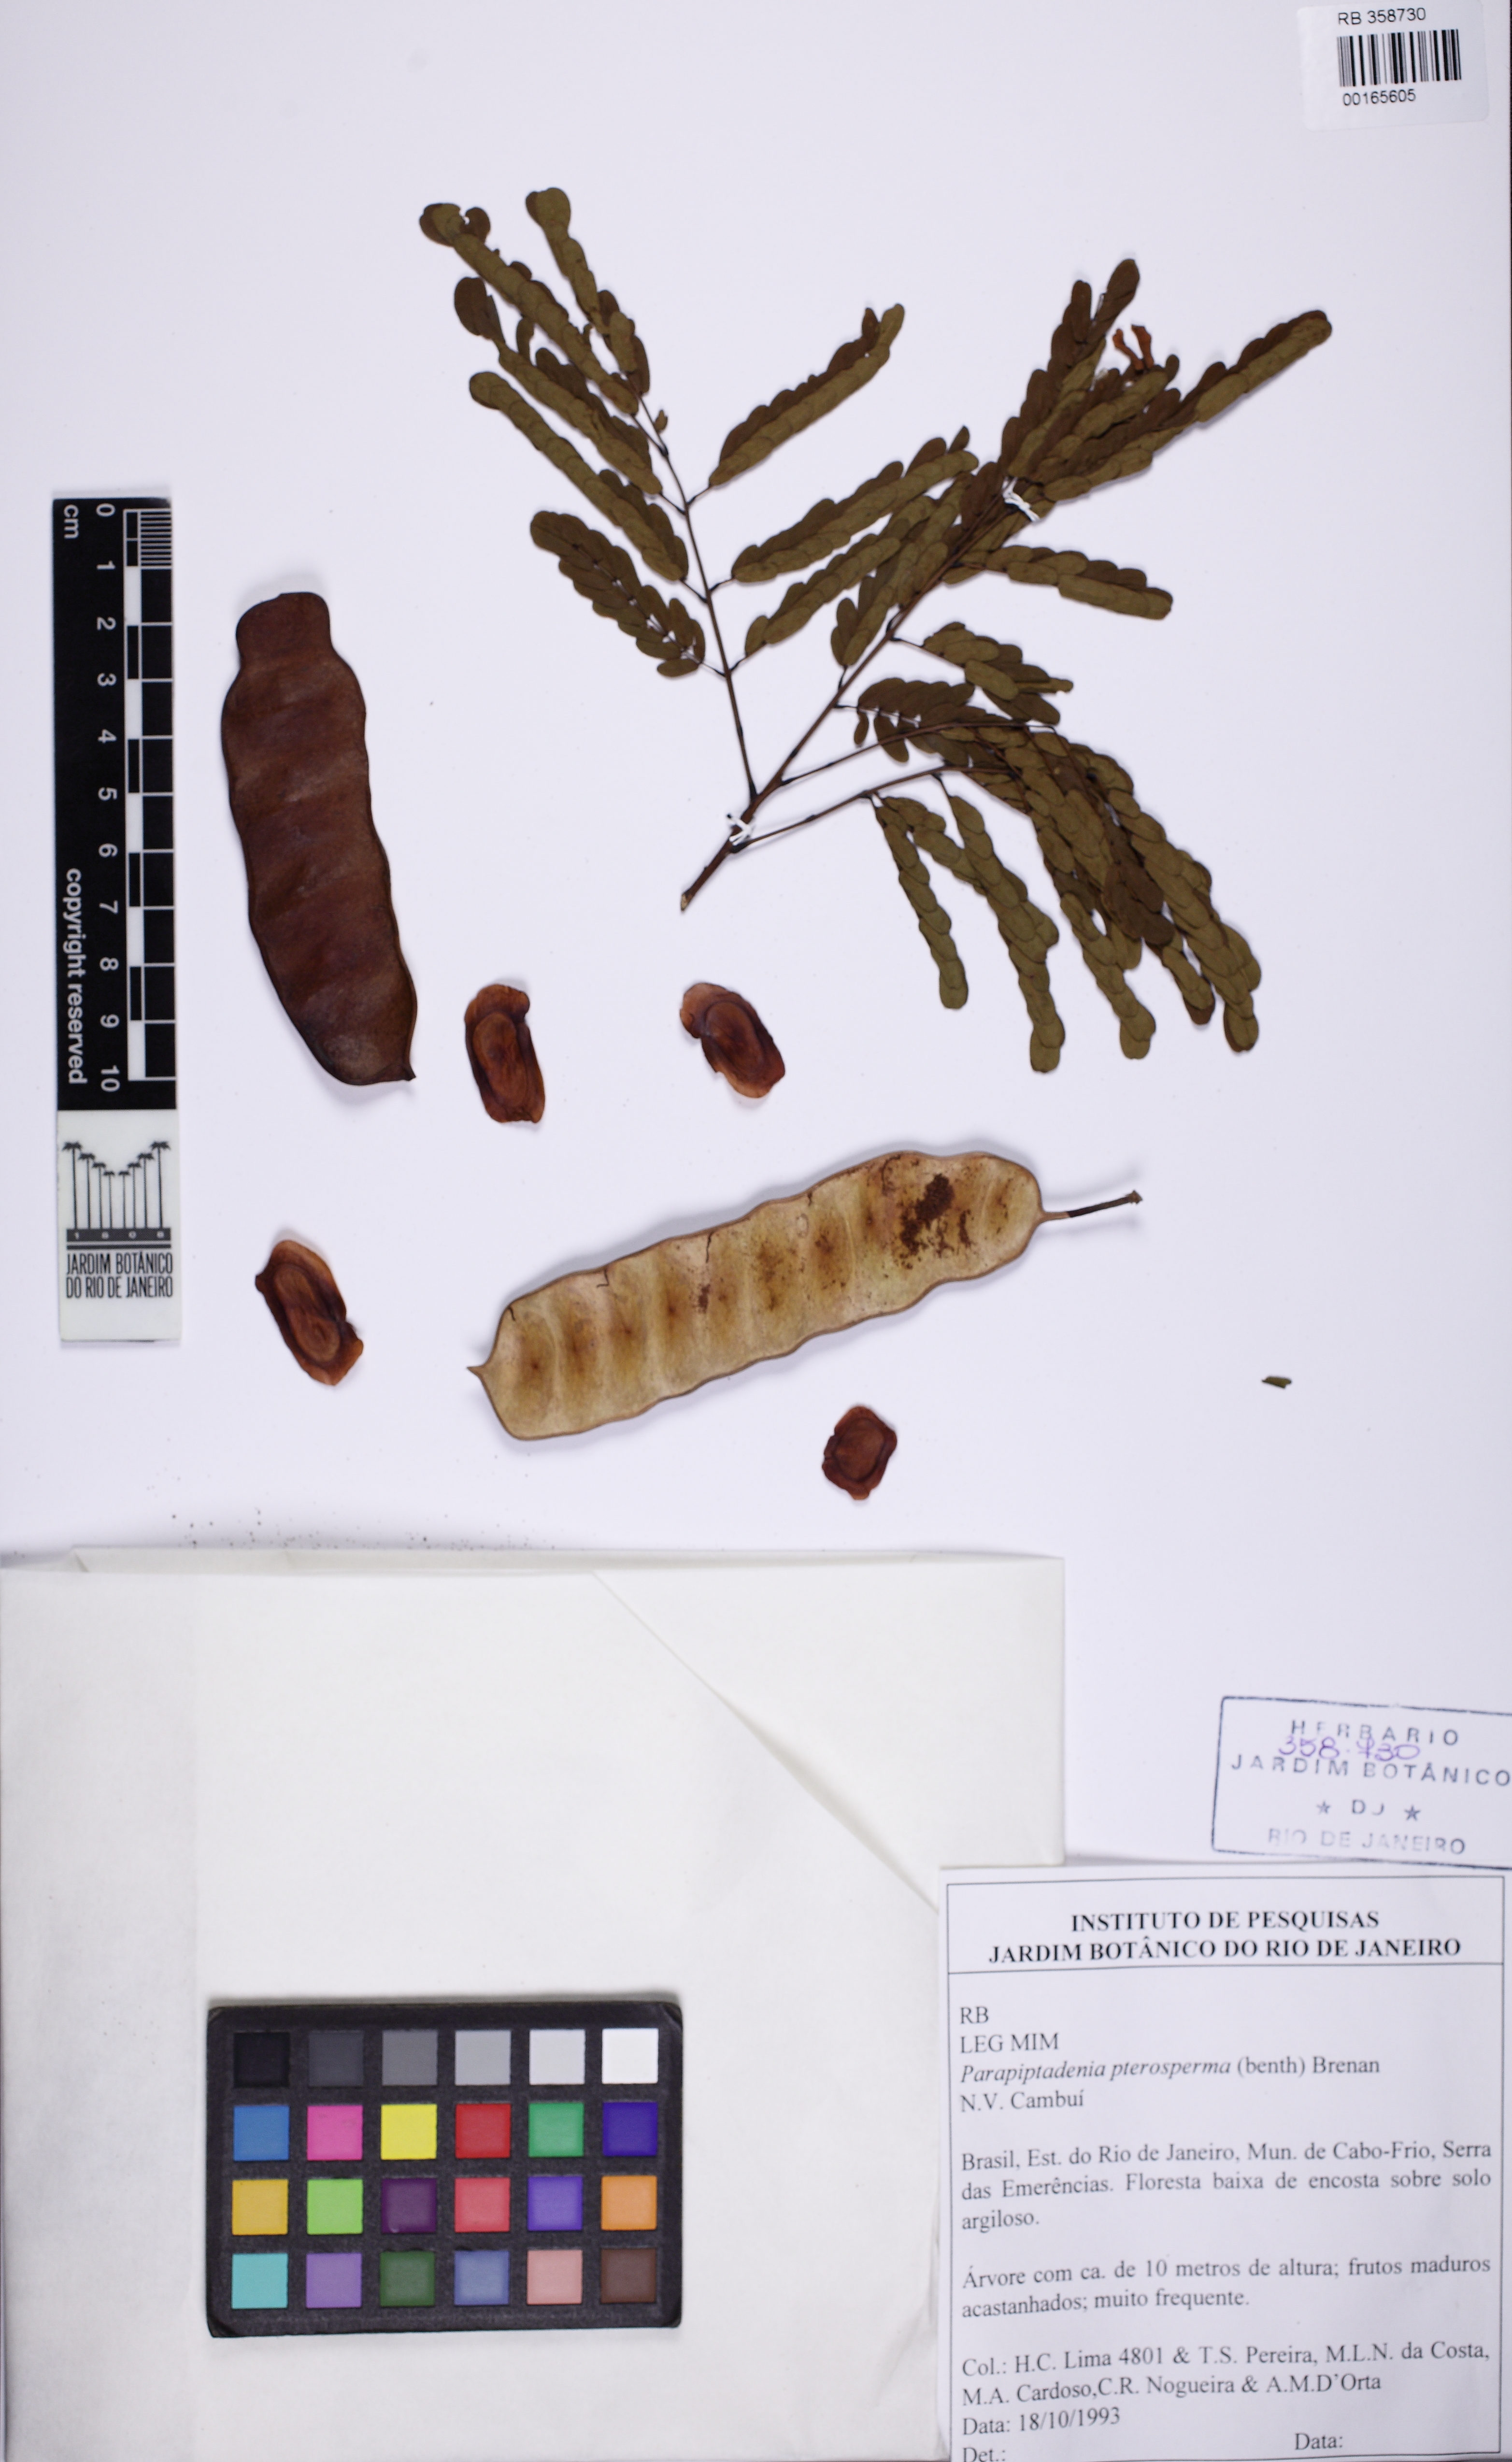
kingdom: Plantae
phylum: Tracheophyta
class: Magnoliopsida
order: Fabales
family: Fabaceae
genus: Parapiptadenia
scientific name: Parapiptadenia pterosperma
